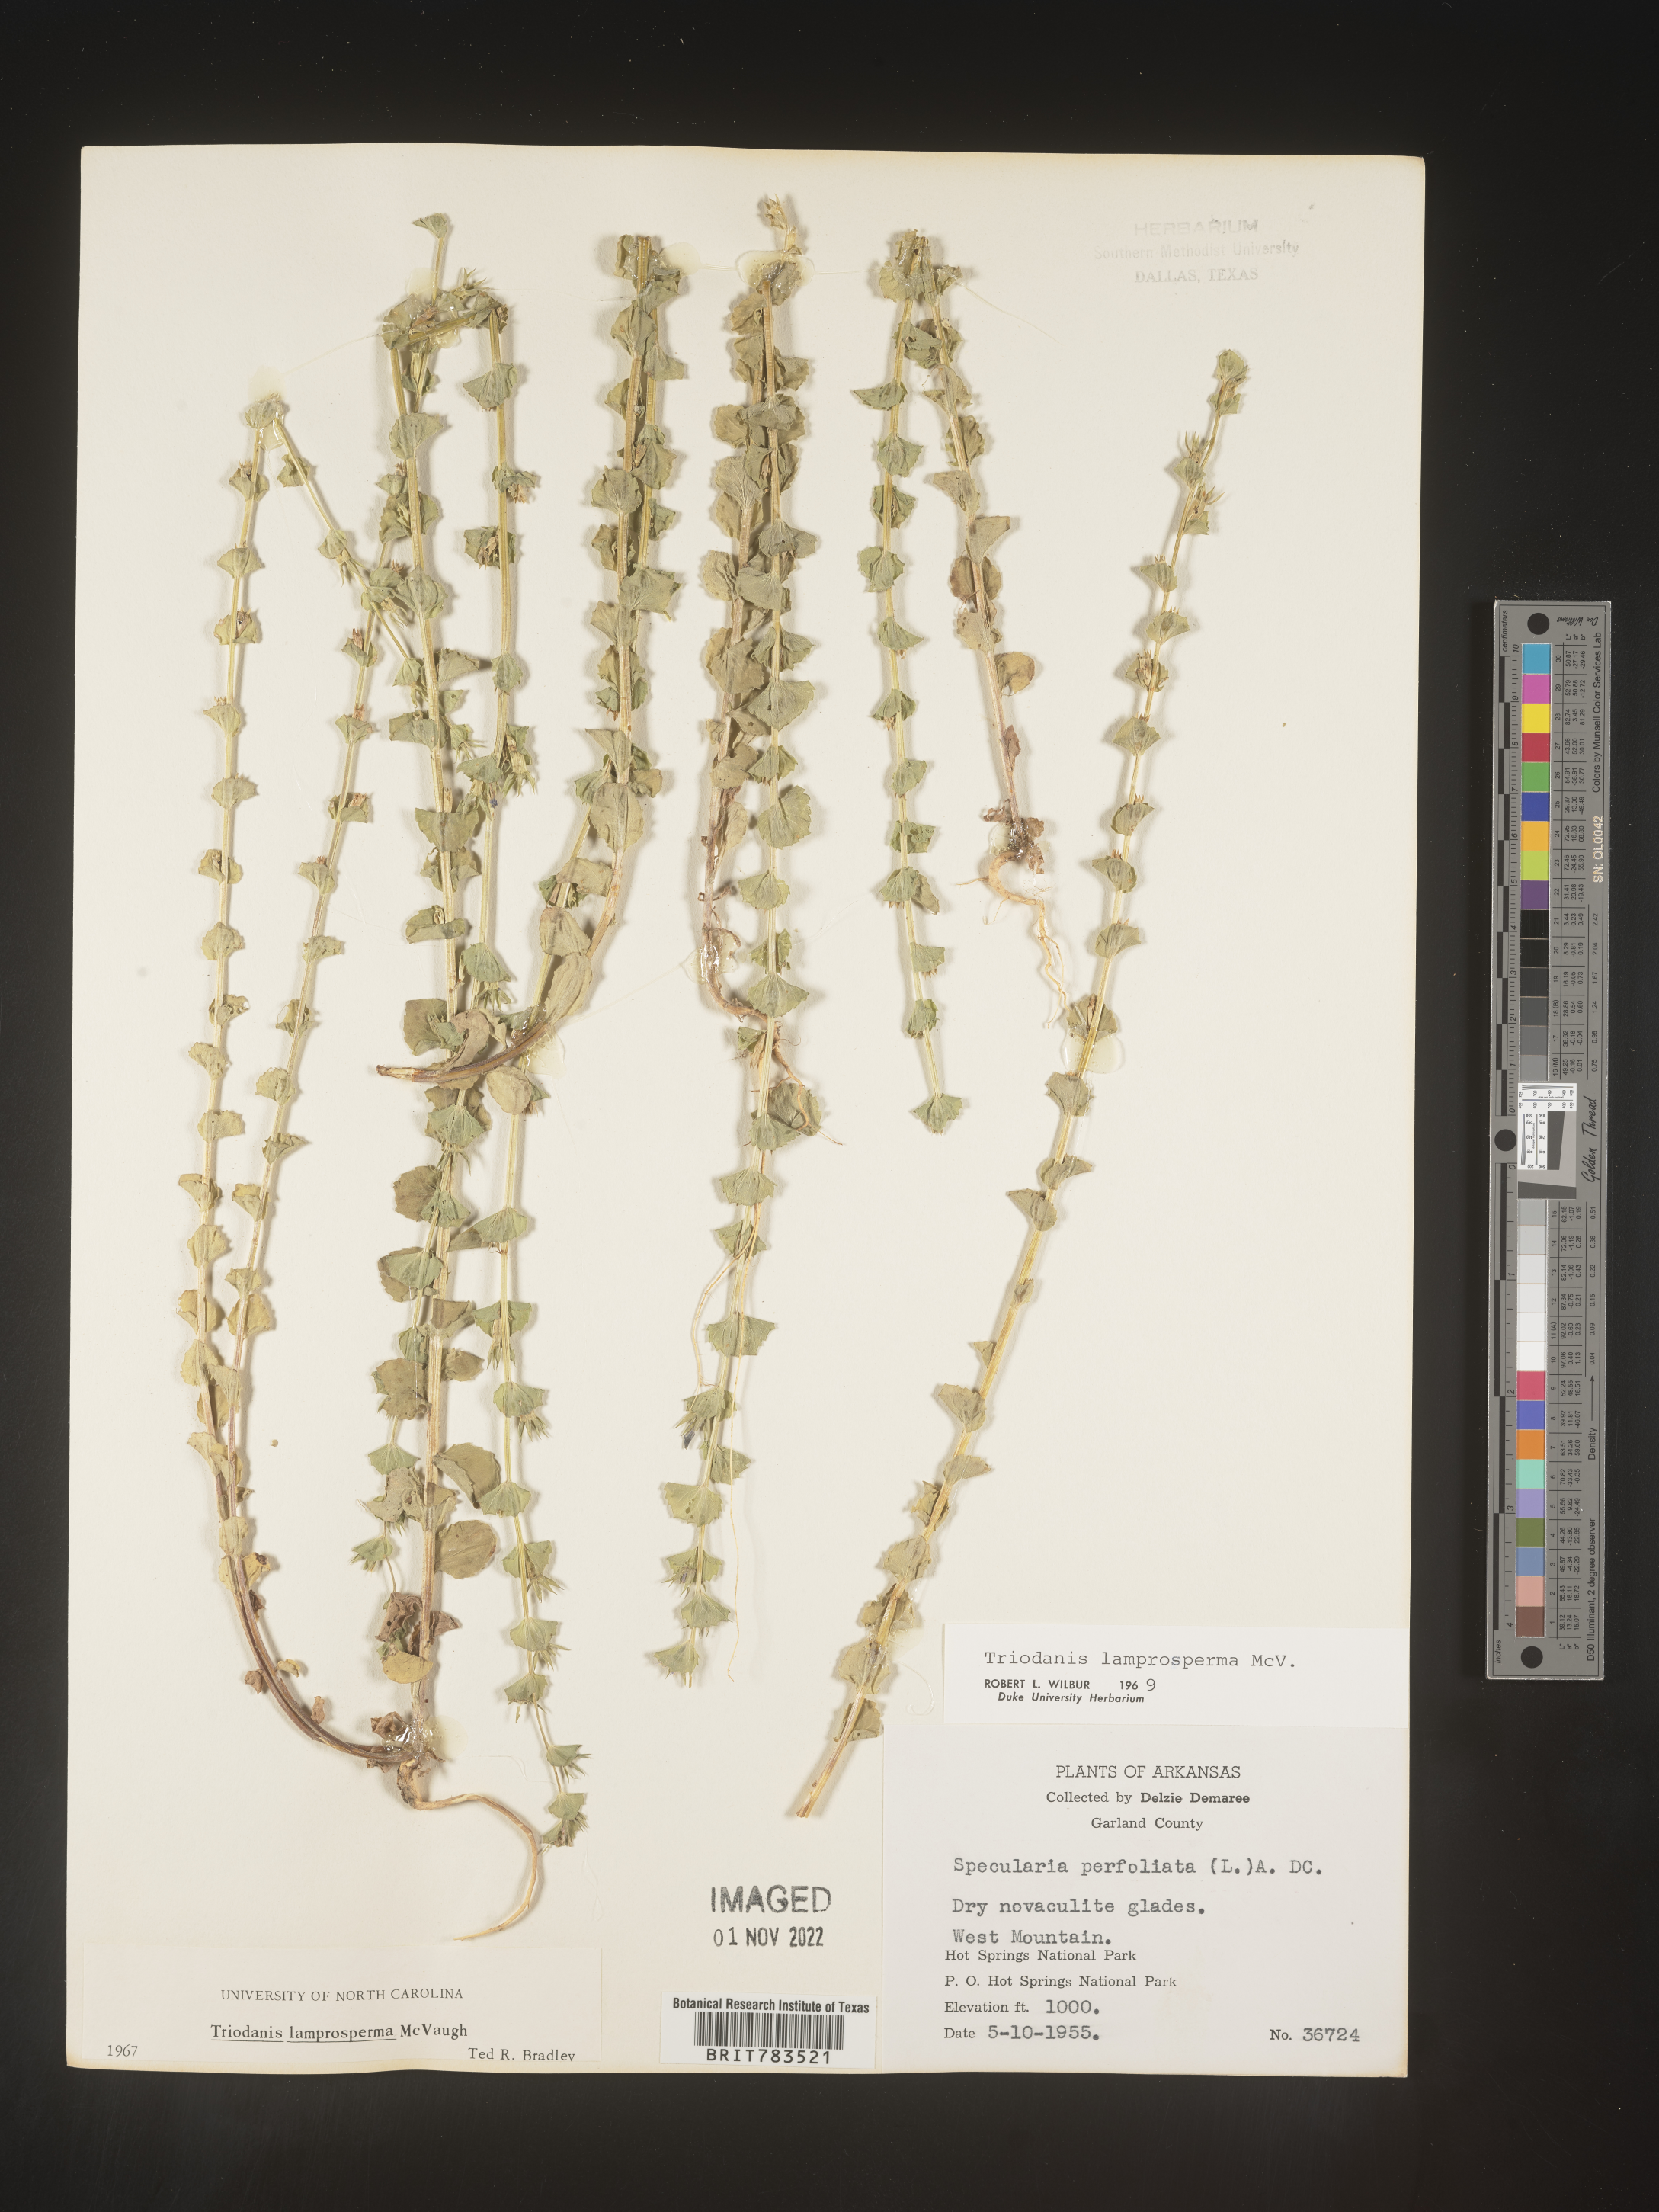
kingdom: Plantae
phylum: Tracheophyta
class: Magnoliopsida
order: Asterales
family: Campanulaceae
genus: Triodanis
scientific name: Triodanis lamprosperma
